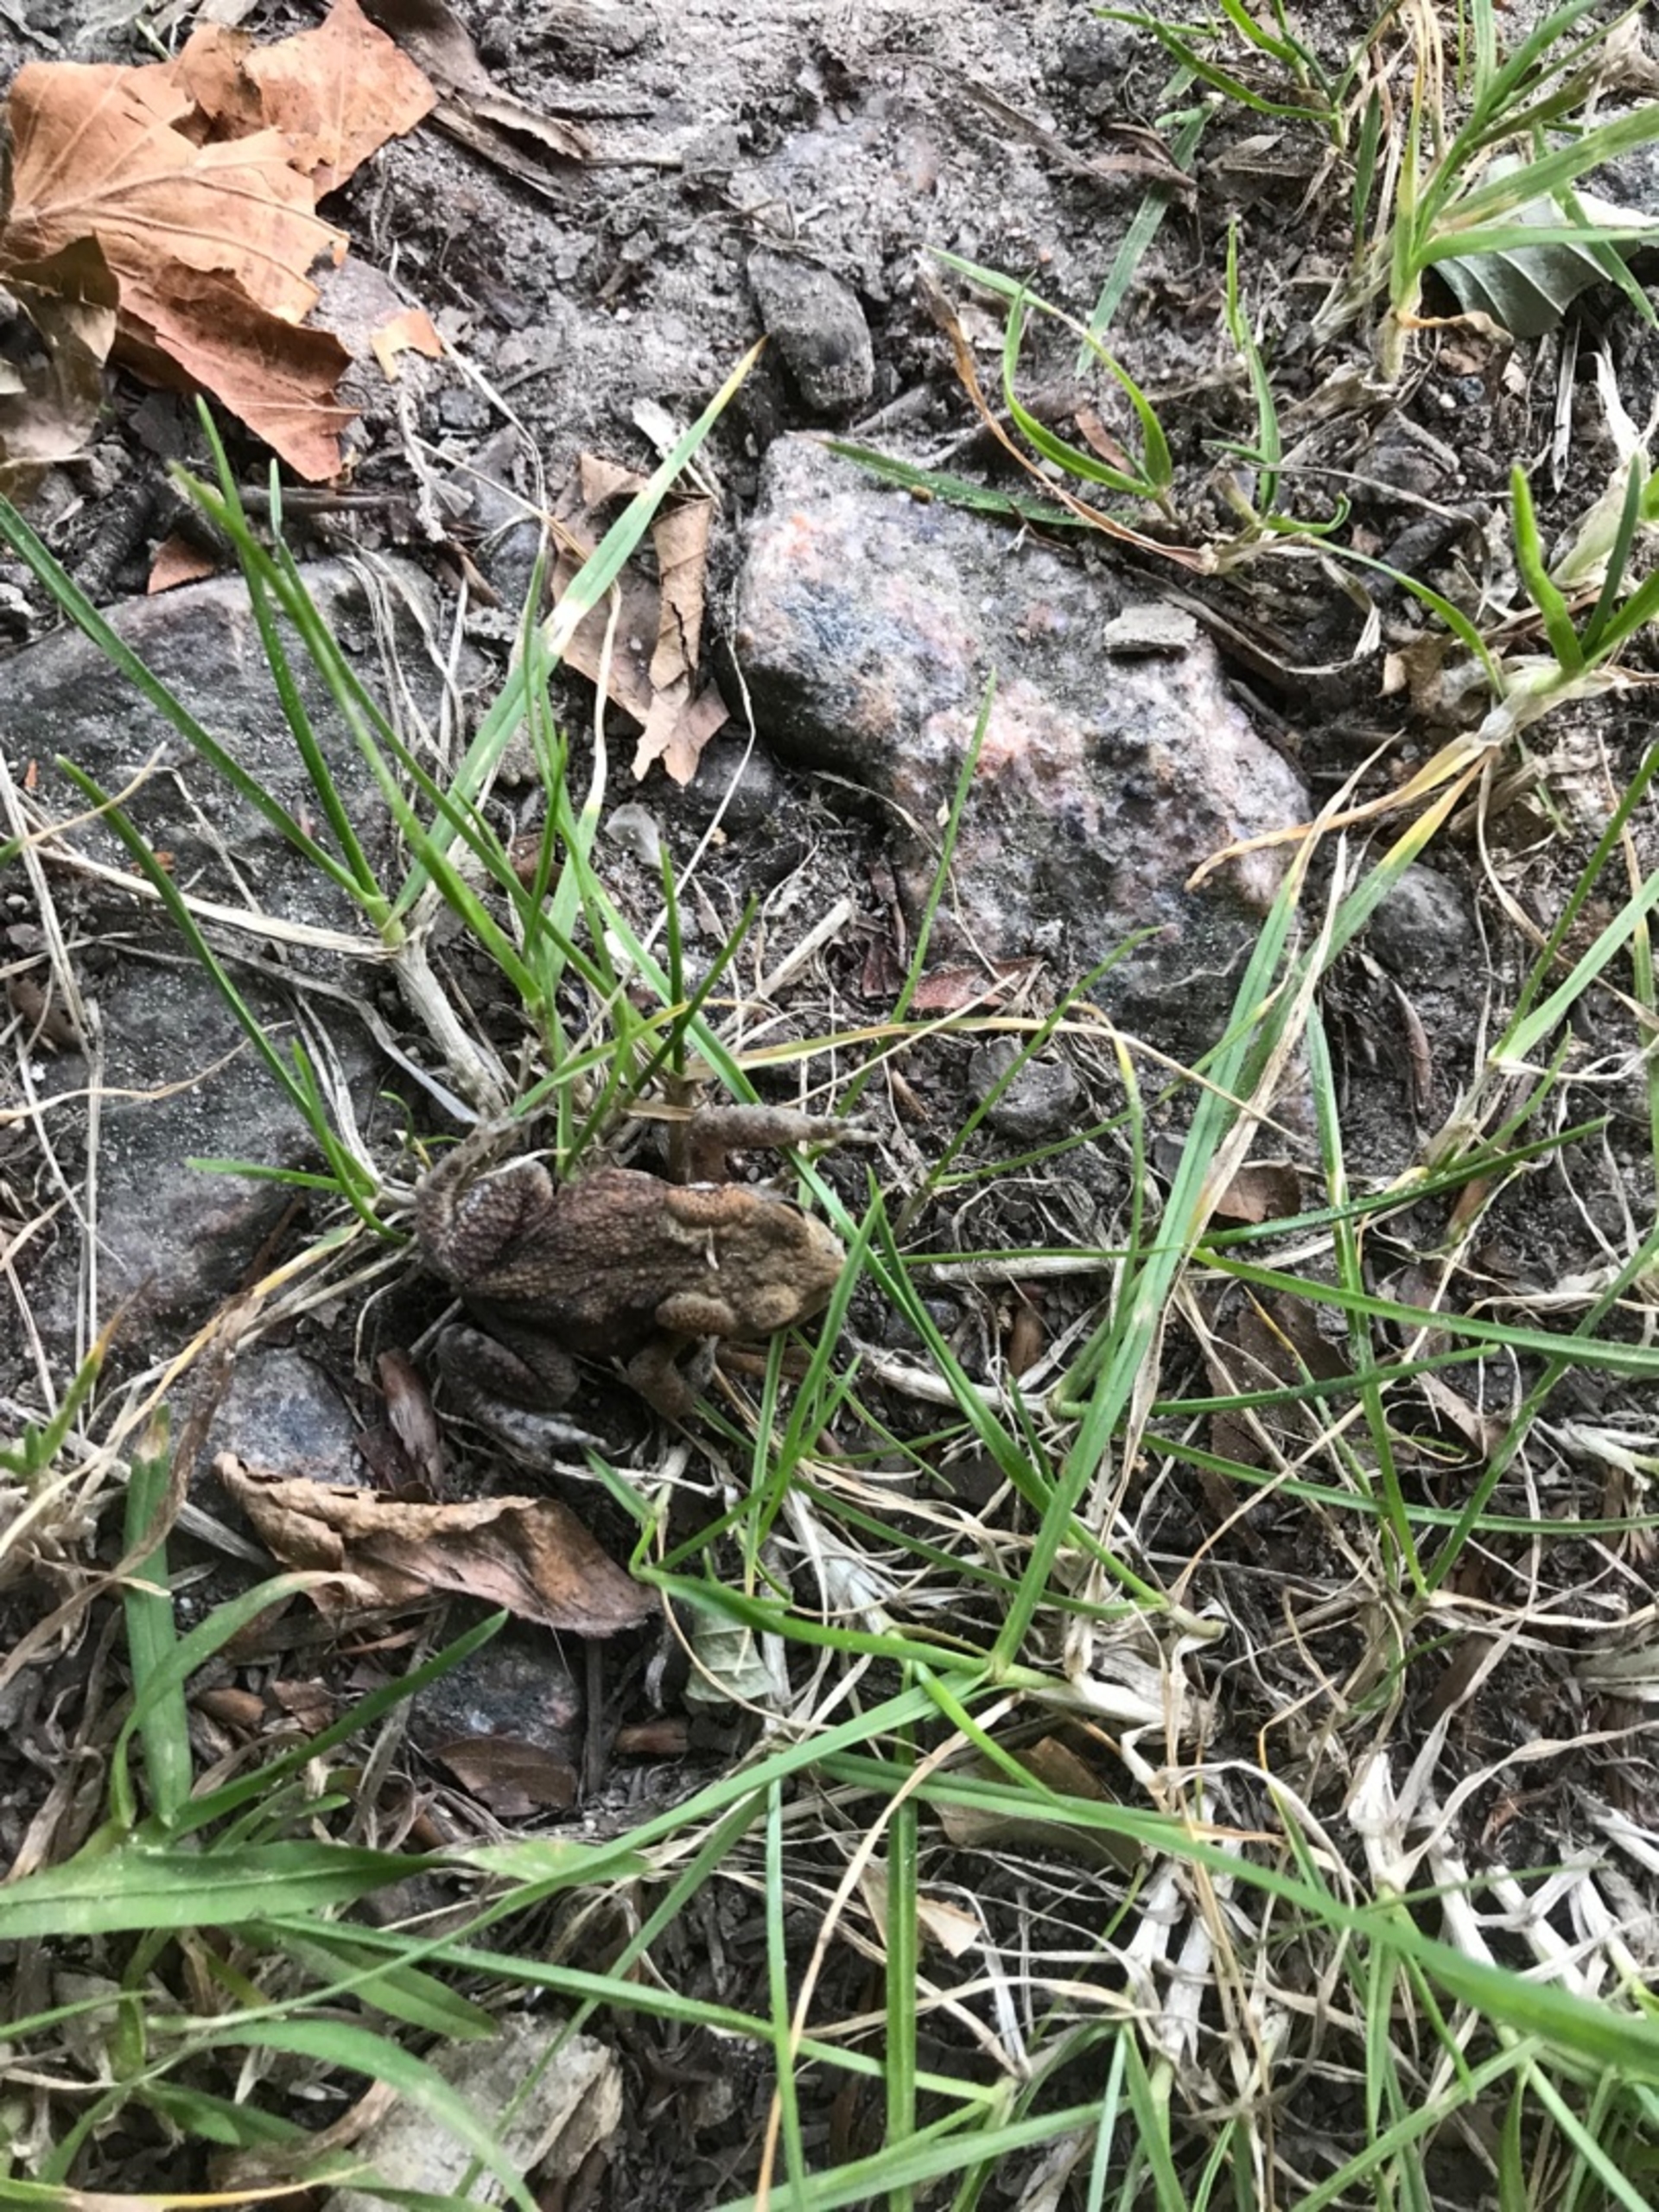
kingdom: Animalia
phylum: Chordata
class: Amphibia
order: Anura
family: Bufonidae
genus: Bufo
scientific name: Bufo bufo
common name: Skrubtudse
